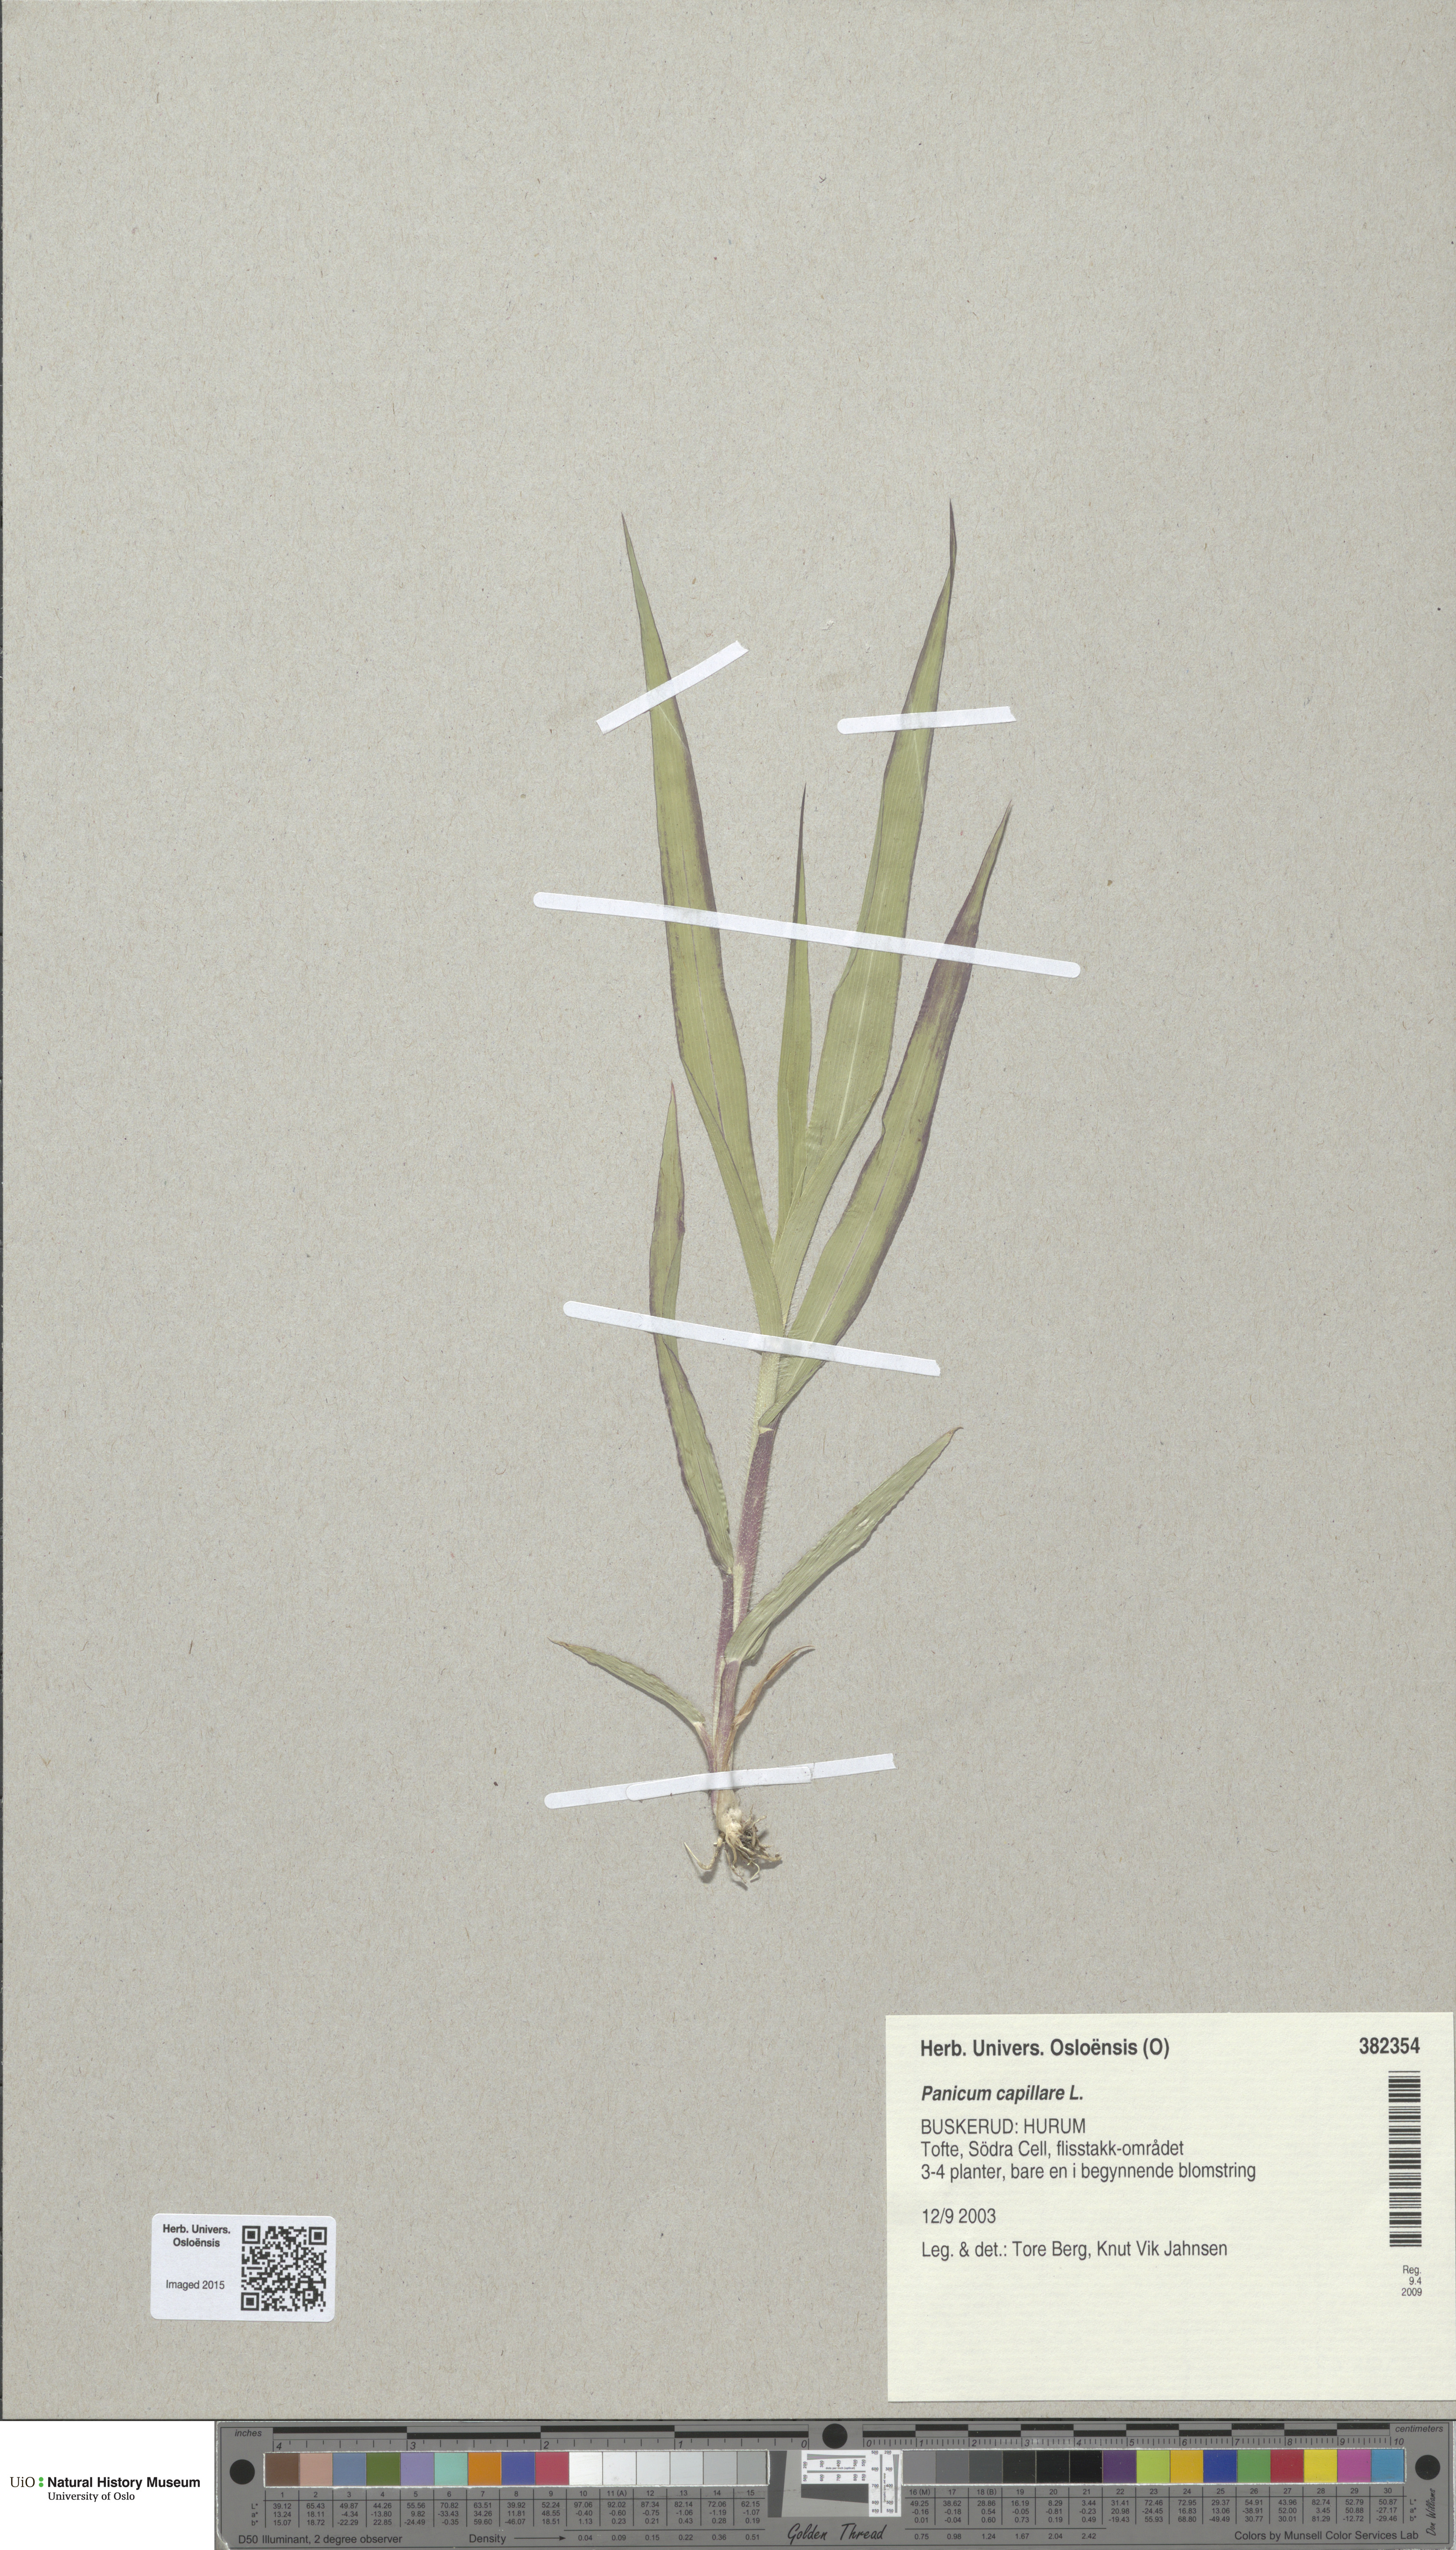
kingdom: Plantae
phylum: Tracheophyta
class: Liliopsida
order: Poales
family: Poaceae
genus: Panicum
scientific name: Panicum capillare
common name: Witch-grass
